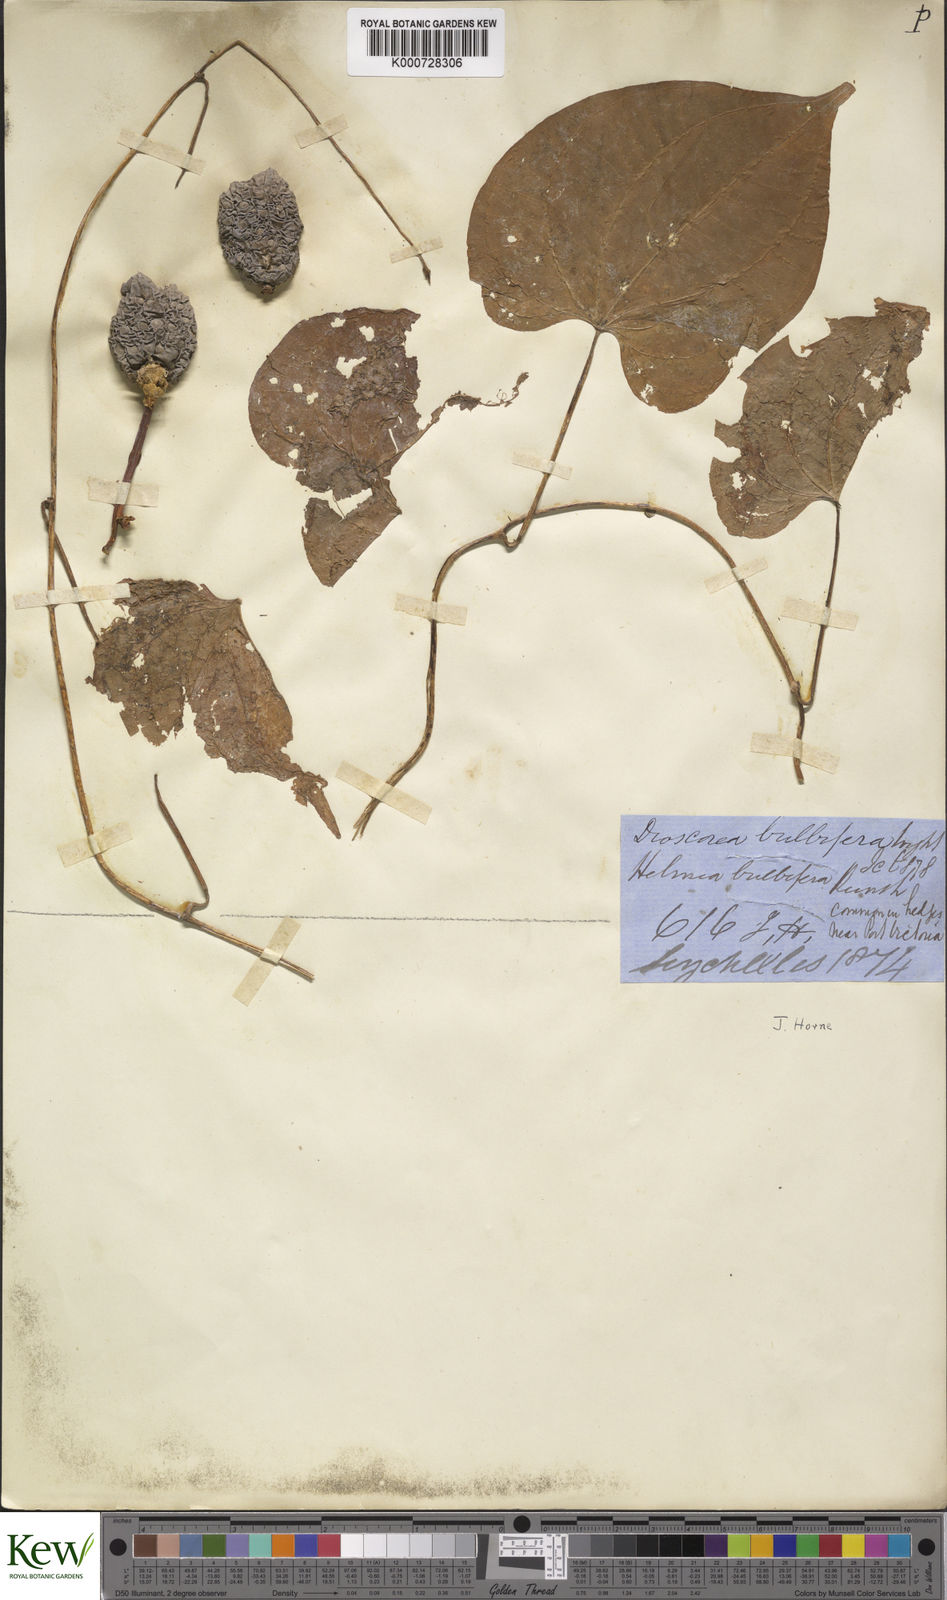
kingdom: Plantae
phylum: Tracheophyta
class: Liliopsida
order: Dioscoreales
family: Dioscoreaceae
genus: Dioscorea
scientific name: Dioscorea bulbifera
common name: Air yam
